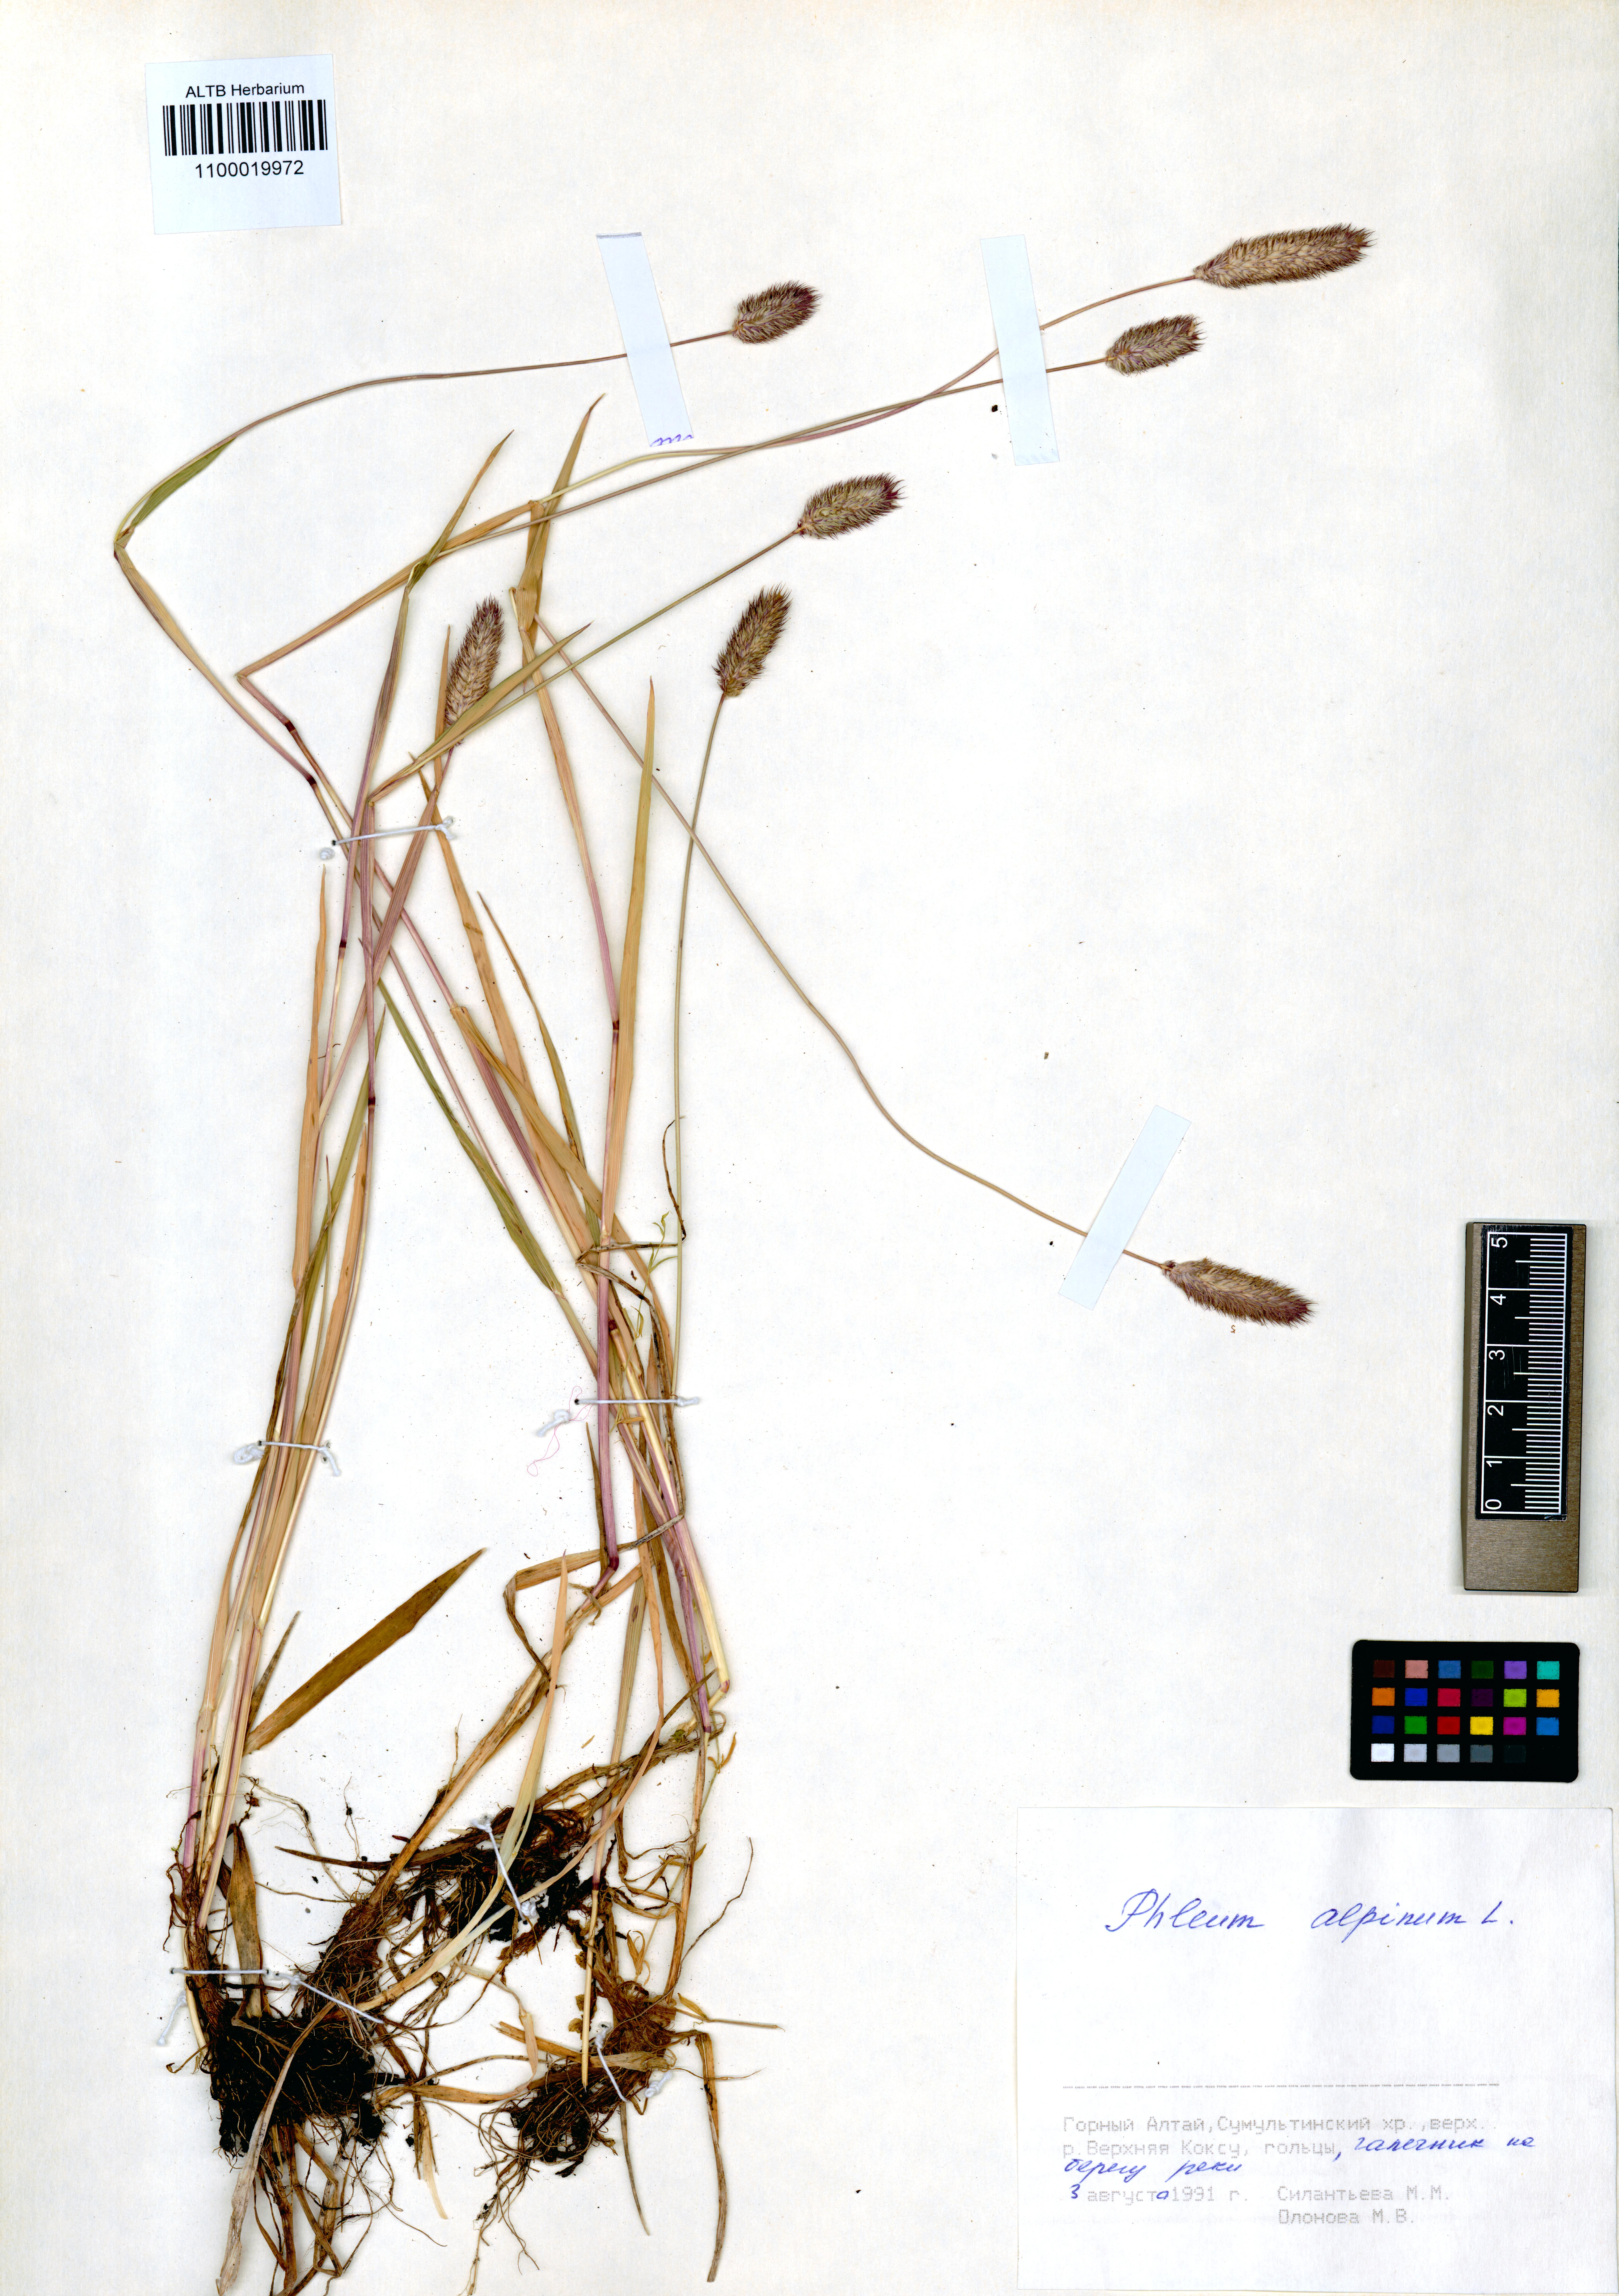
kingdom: Plantae
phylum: Tracheophyta
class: Liliopsida
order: Poales
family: Poaceae
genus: Phleum
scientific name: Phleum alpinum
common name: Alpine cat's-tail
